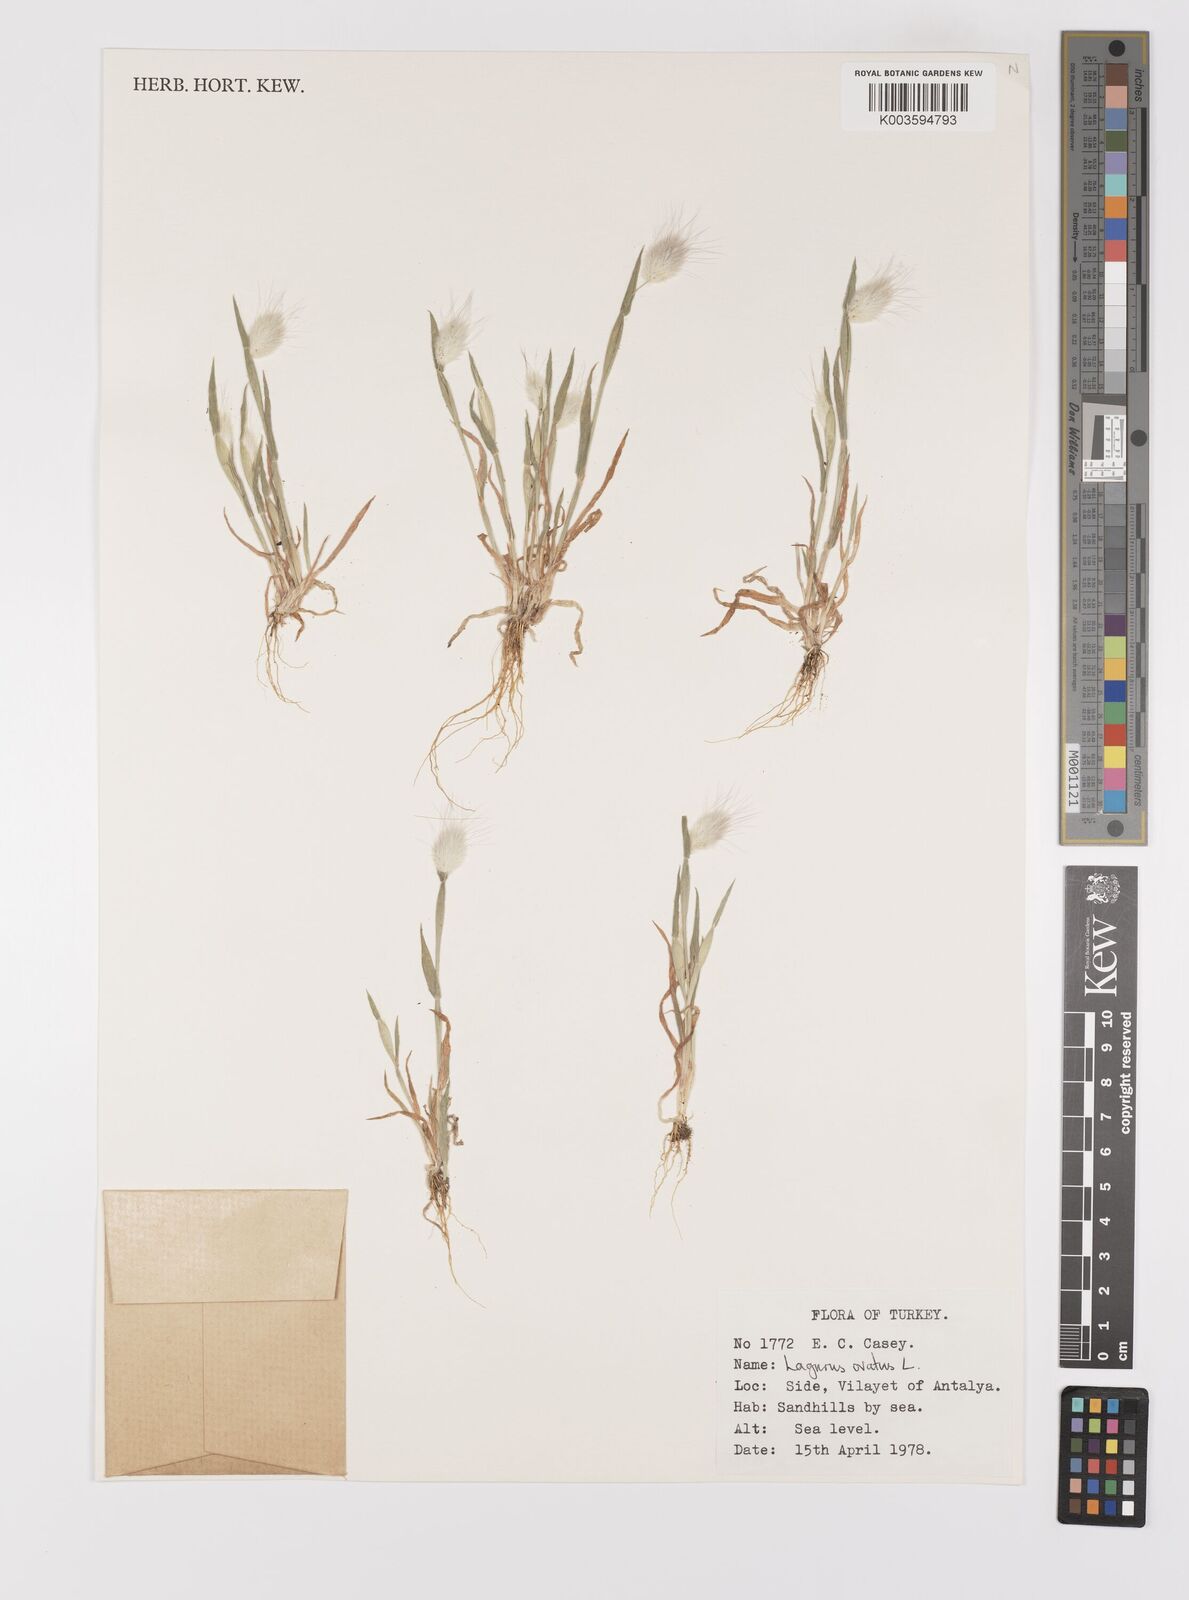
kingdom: Plantae
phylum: Tracheophyta
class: Liliopsida
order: Poales
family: Poaceae
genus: Lagurus
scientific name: Lagurus ovatus
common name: Hare's-tail
